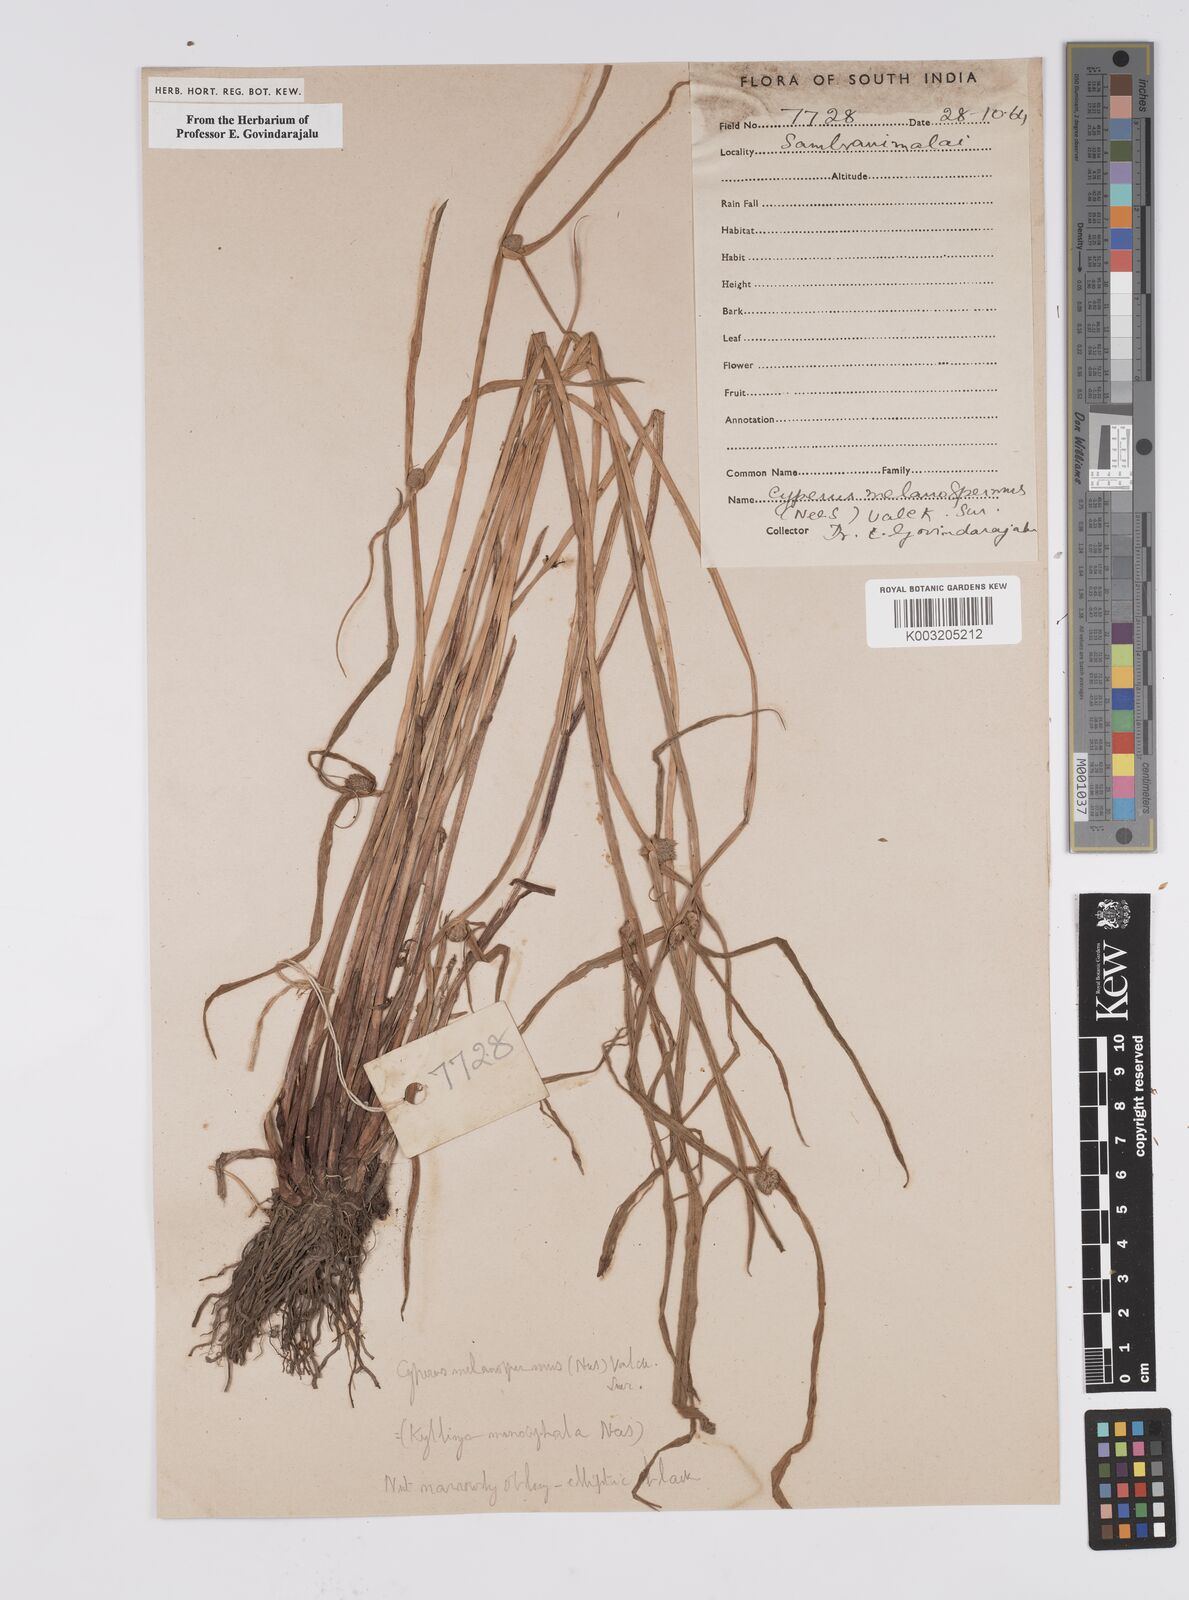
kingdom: Plantae
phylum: Tracheophyta
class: Liliopsida
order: Poales
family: Cyperaceae
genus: Cyperus
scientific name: Cyperus melanospermus
